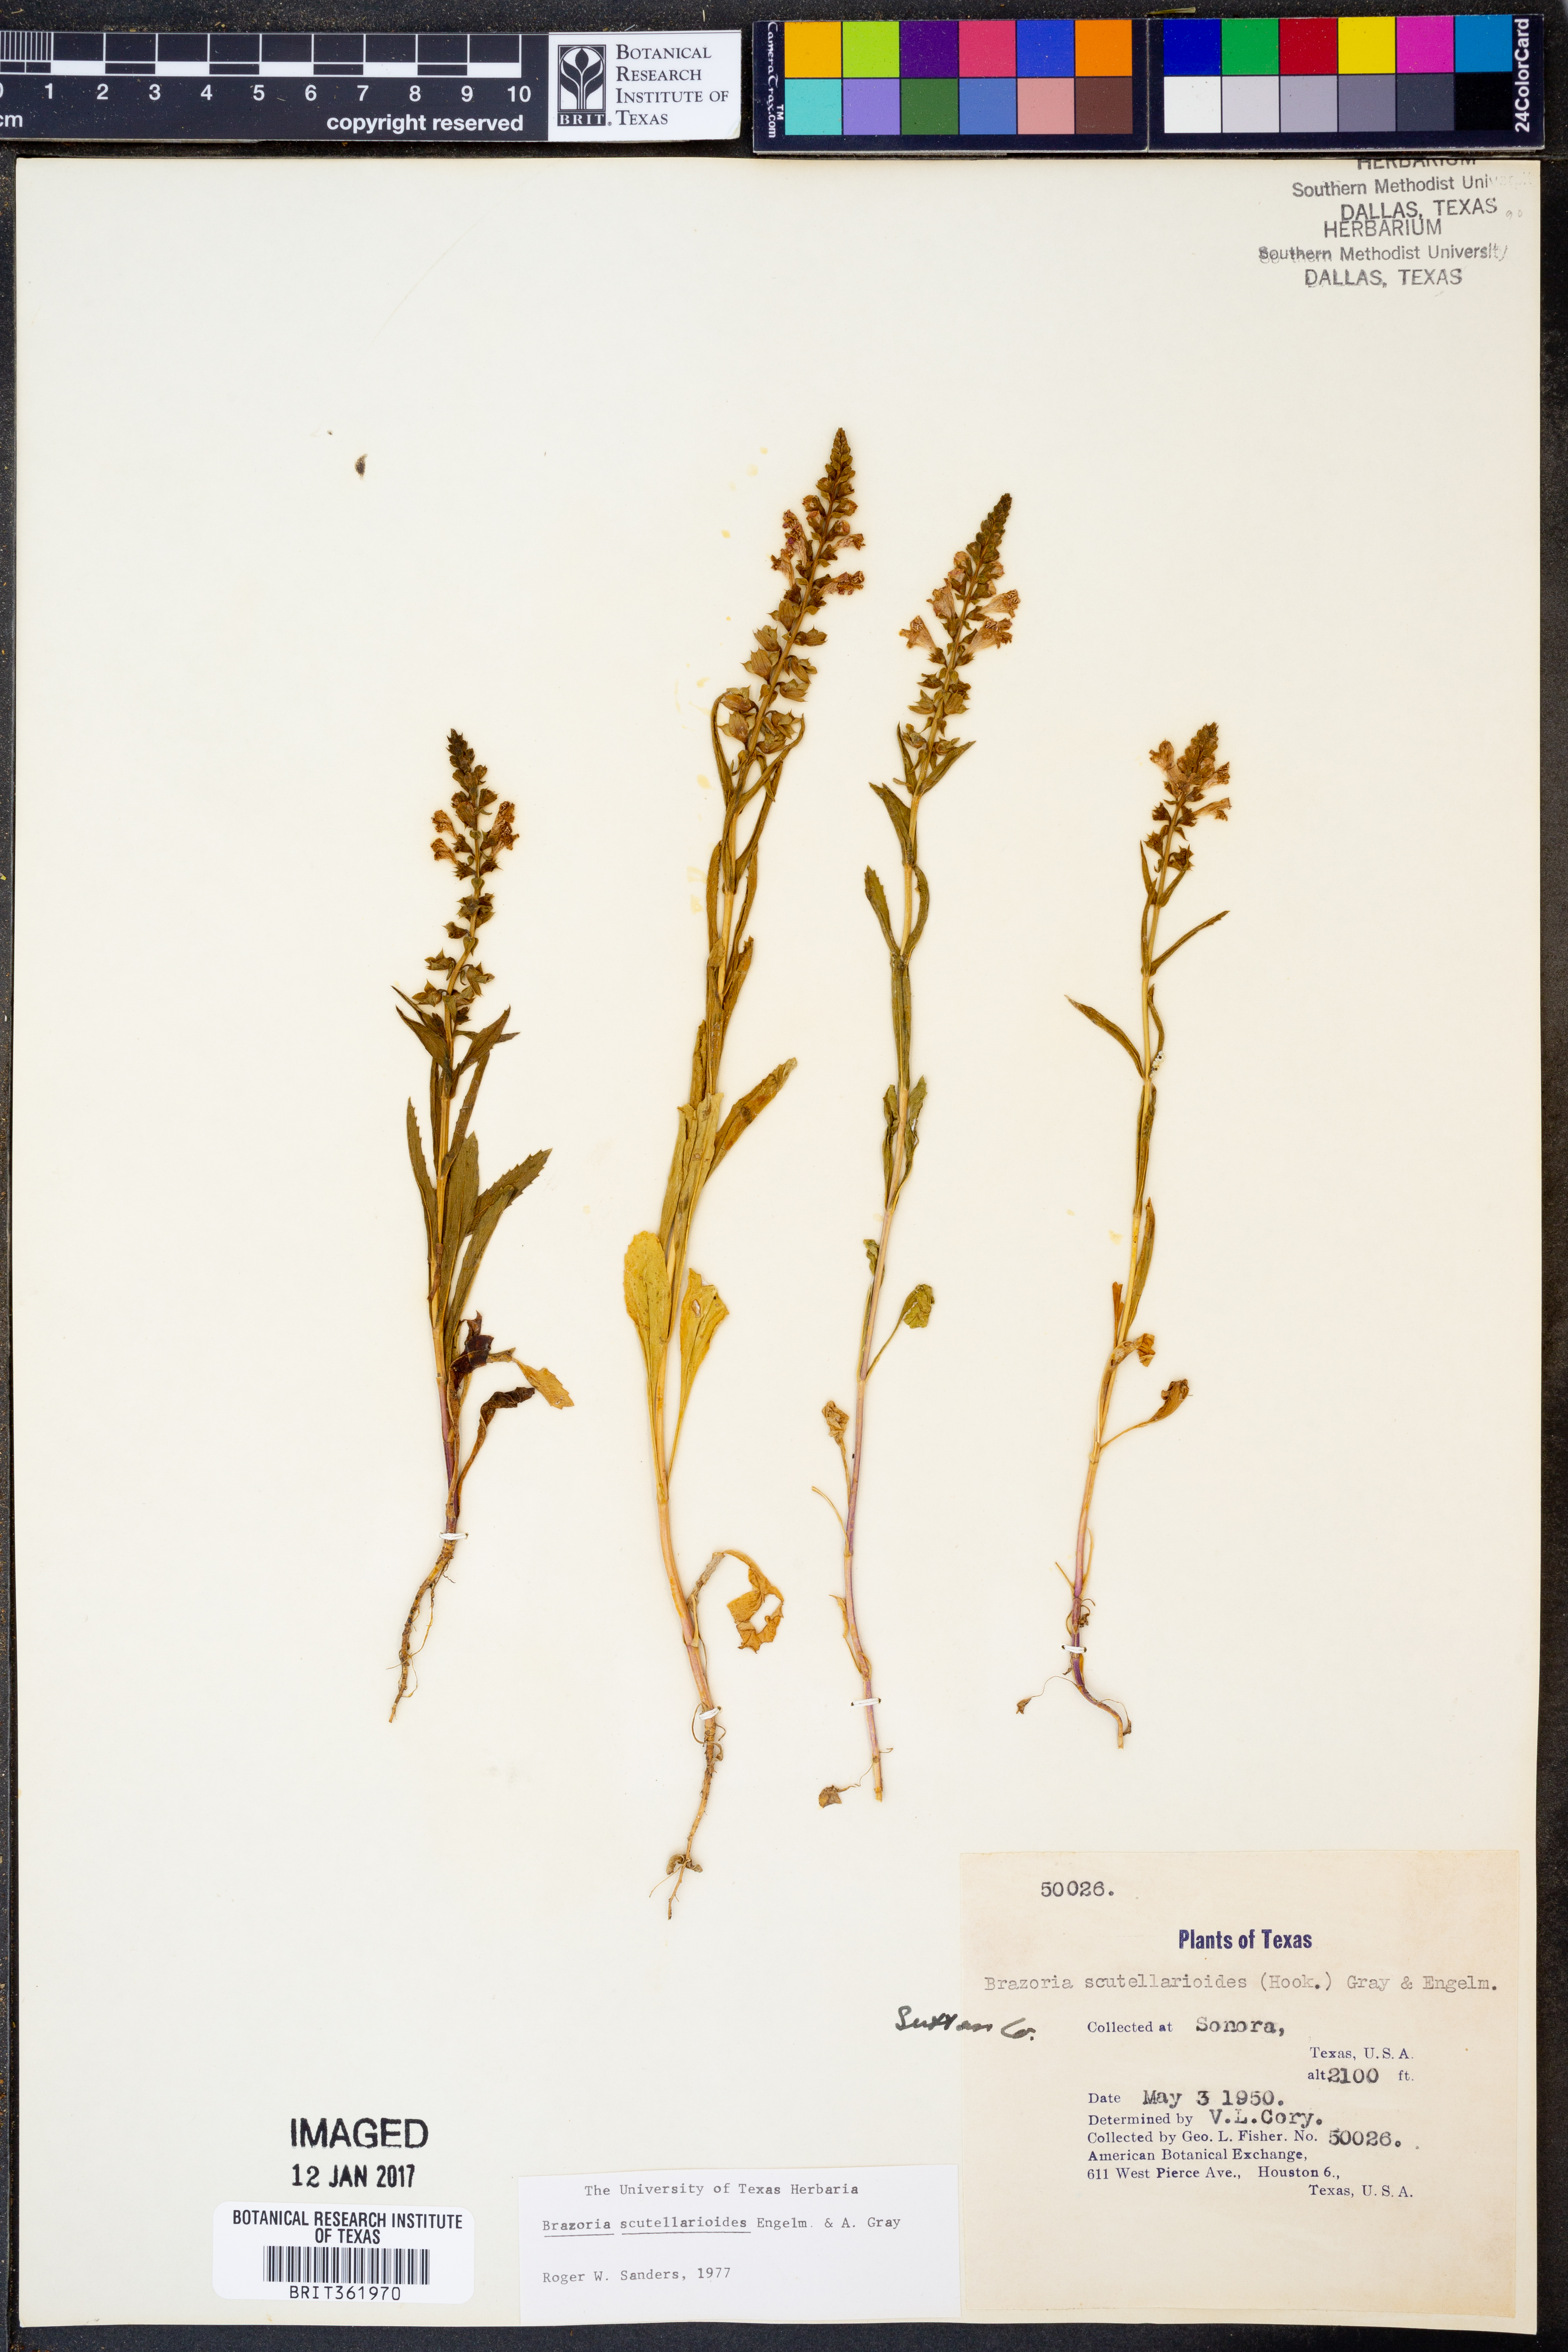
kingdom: Plantae
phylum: Tracheophyta
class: Magnoliopsida
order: Lamiales
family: Lamiaceae
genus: Warnockia
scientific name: Warnockia scutellarioides
